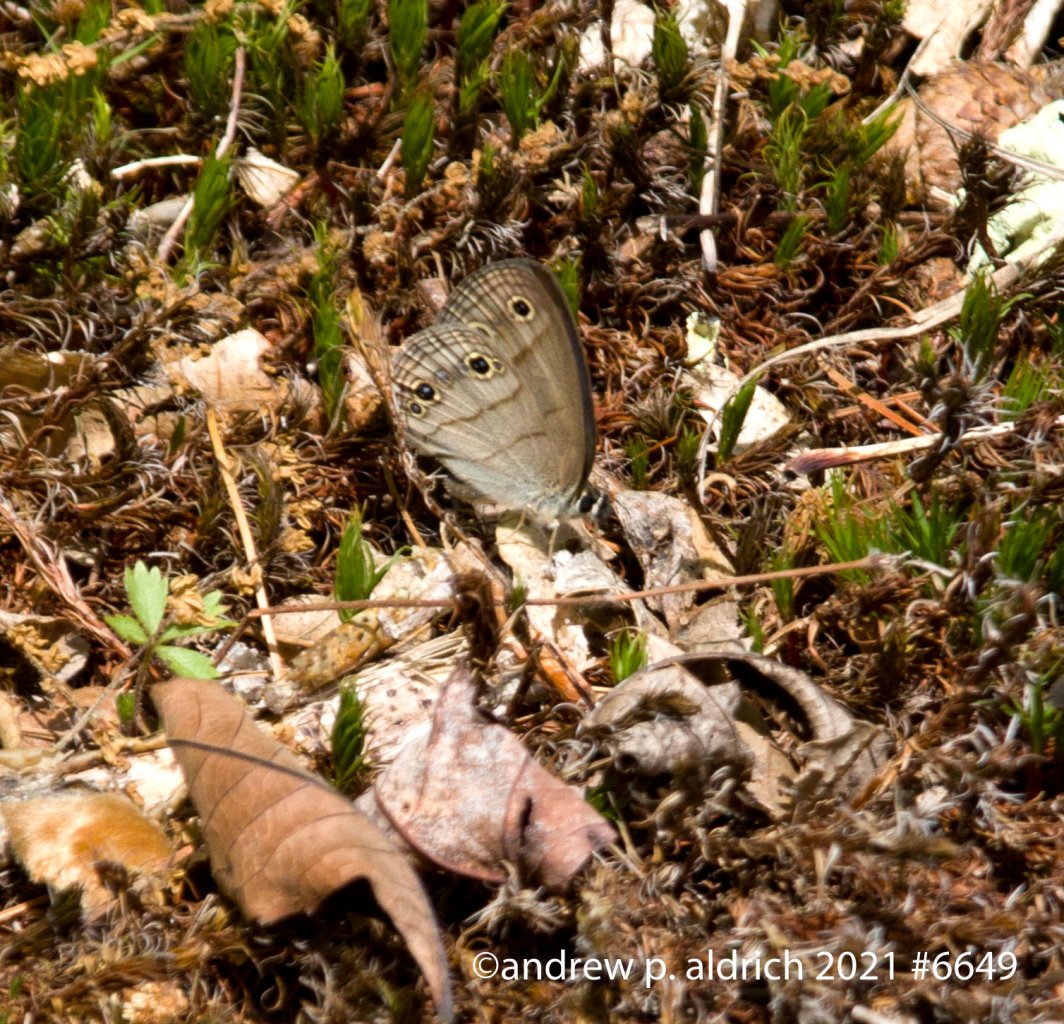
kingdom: Animalia
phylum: Arthropoda
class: Insecta
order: Lepidoptera
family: Nymphalidae
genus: Euptychia
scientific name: Euptychia cymela
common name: Little Wood Satyr
